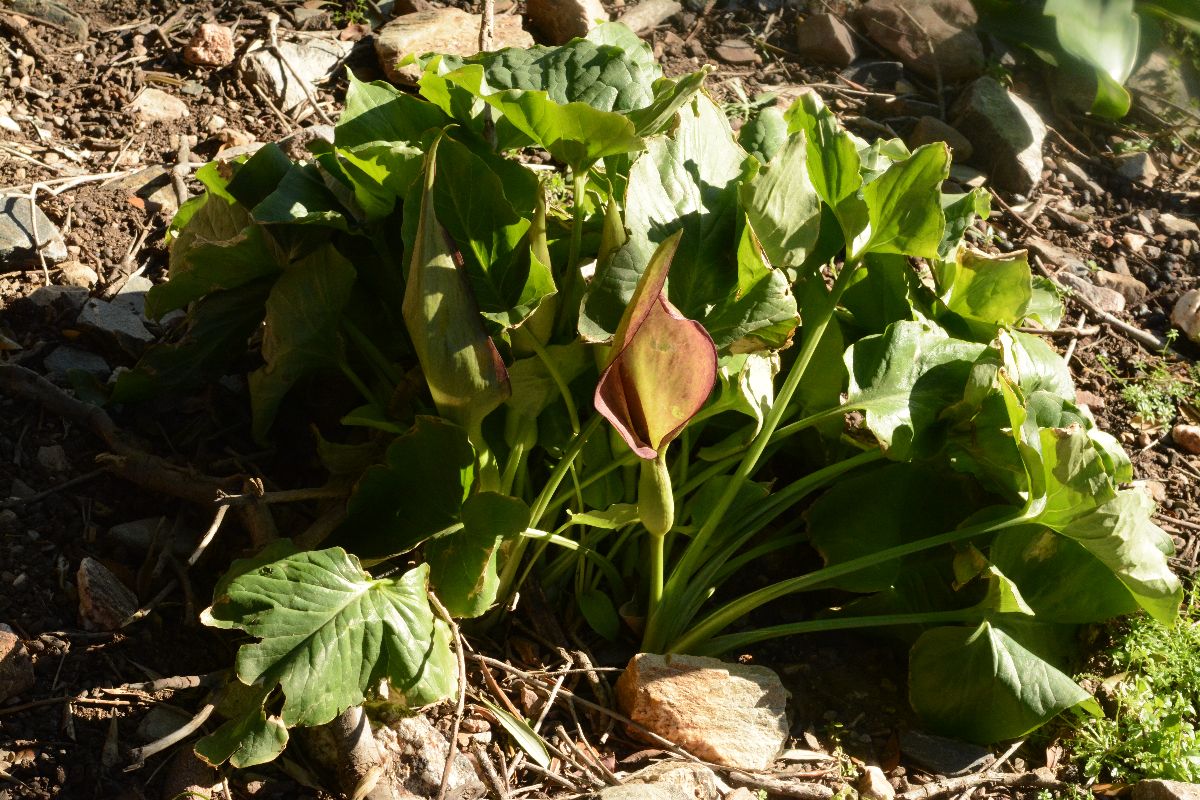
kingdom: Plantae
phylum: Tracheophyta
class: Liliopsida
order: Alismatales
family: Araceae
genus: Arum
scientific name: Arum concinnatum
